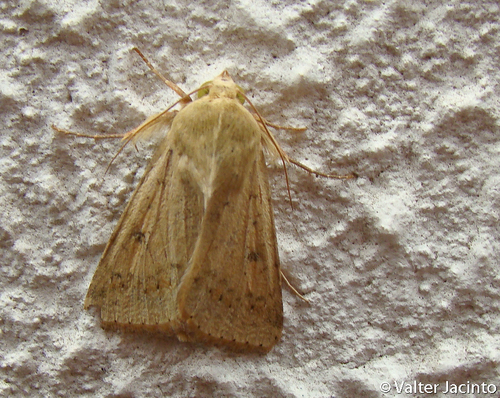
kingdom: Animalia
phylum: Arthropoda
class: Insecta
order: Lepidoptera
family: Noctuidae
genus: Helicoverpa
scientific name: Helicoverpa armigera
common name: Cotton bollworm
